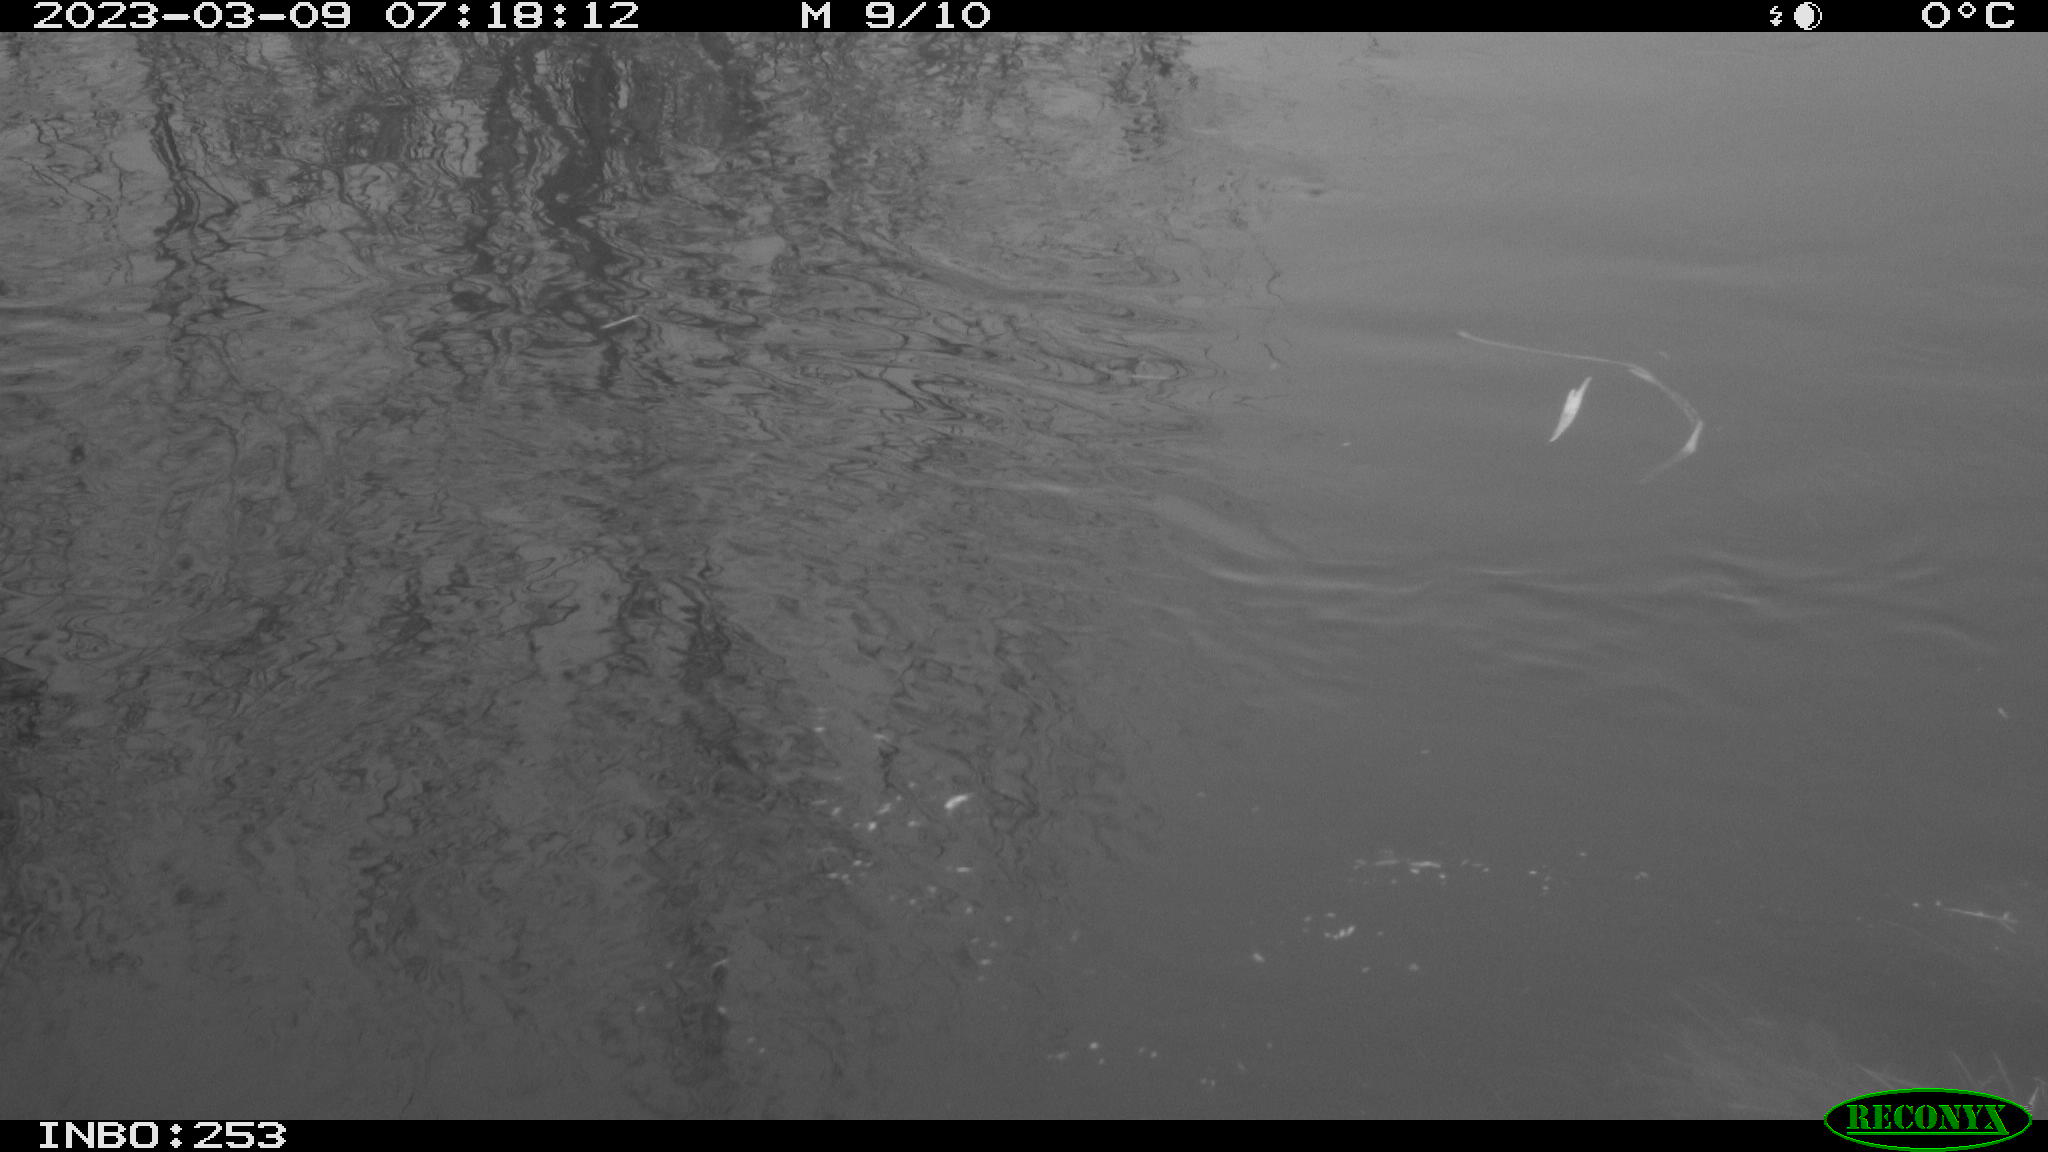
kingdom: Animalia
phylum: Chordata
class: Aves
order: Anseriformes
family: Anatidae
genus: Anas
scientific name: Anas
